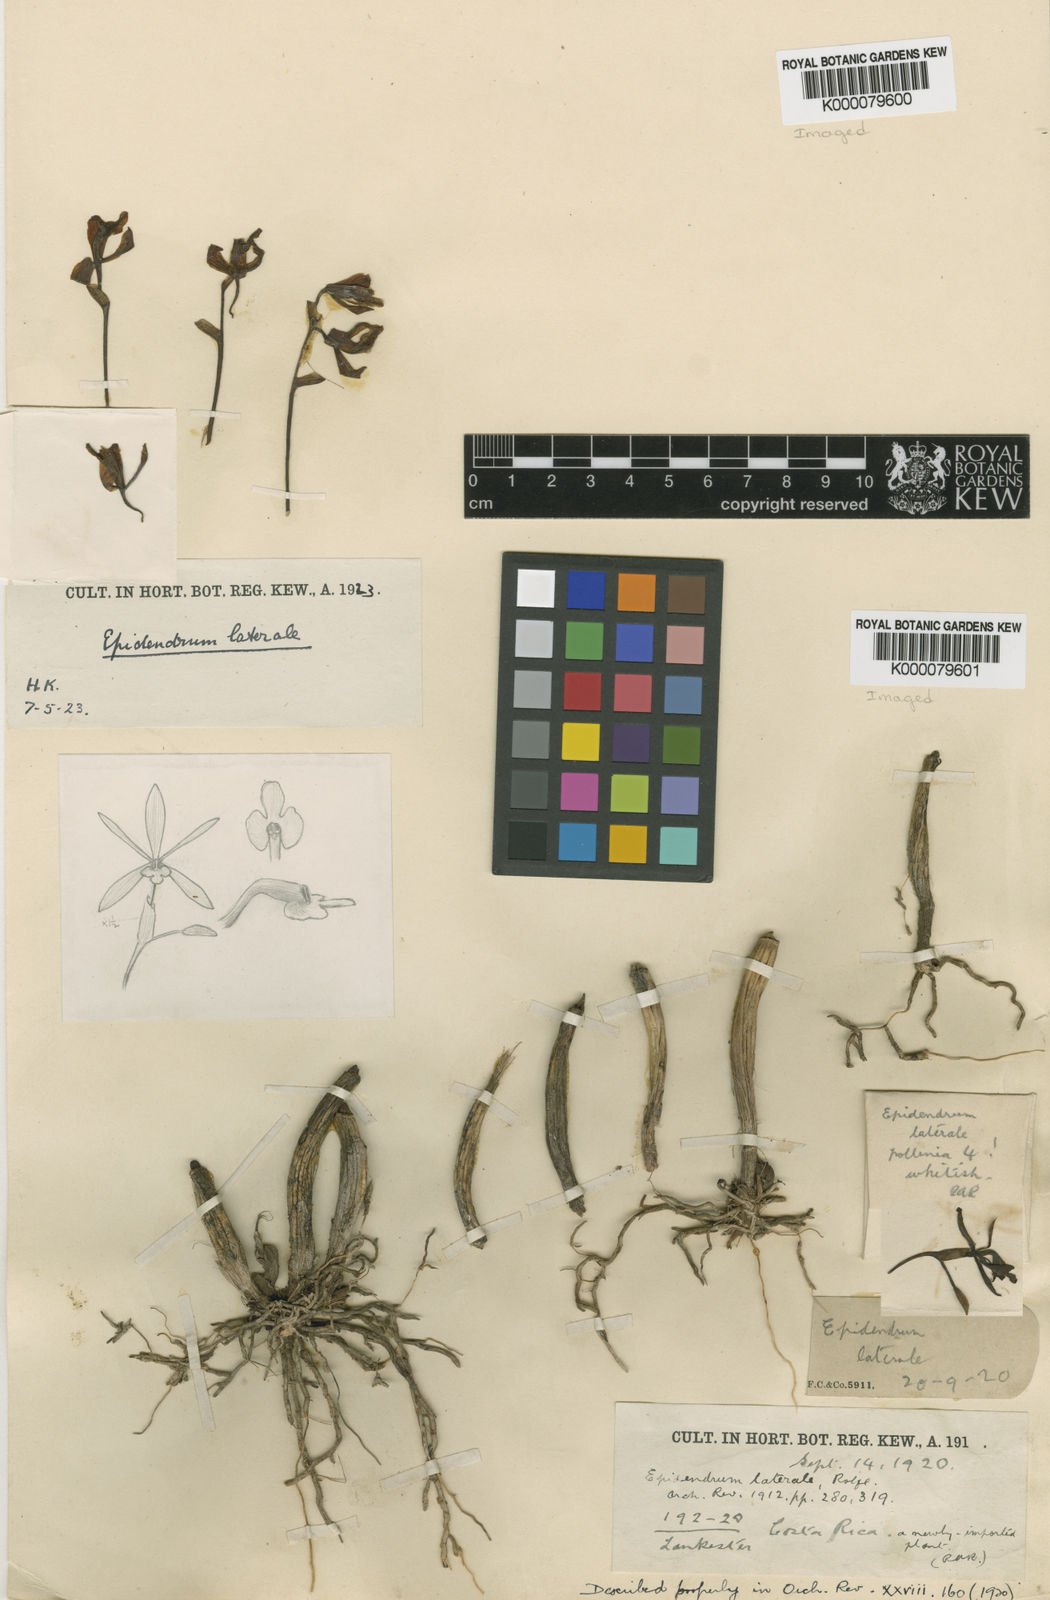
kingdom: Plantae
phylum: Tracheophyta
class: Liliopsida
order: Asparagales
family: Orchidaceae
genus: Epidendrum
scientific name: Epidendrum laterale
